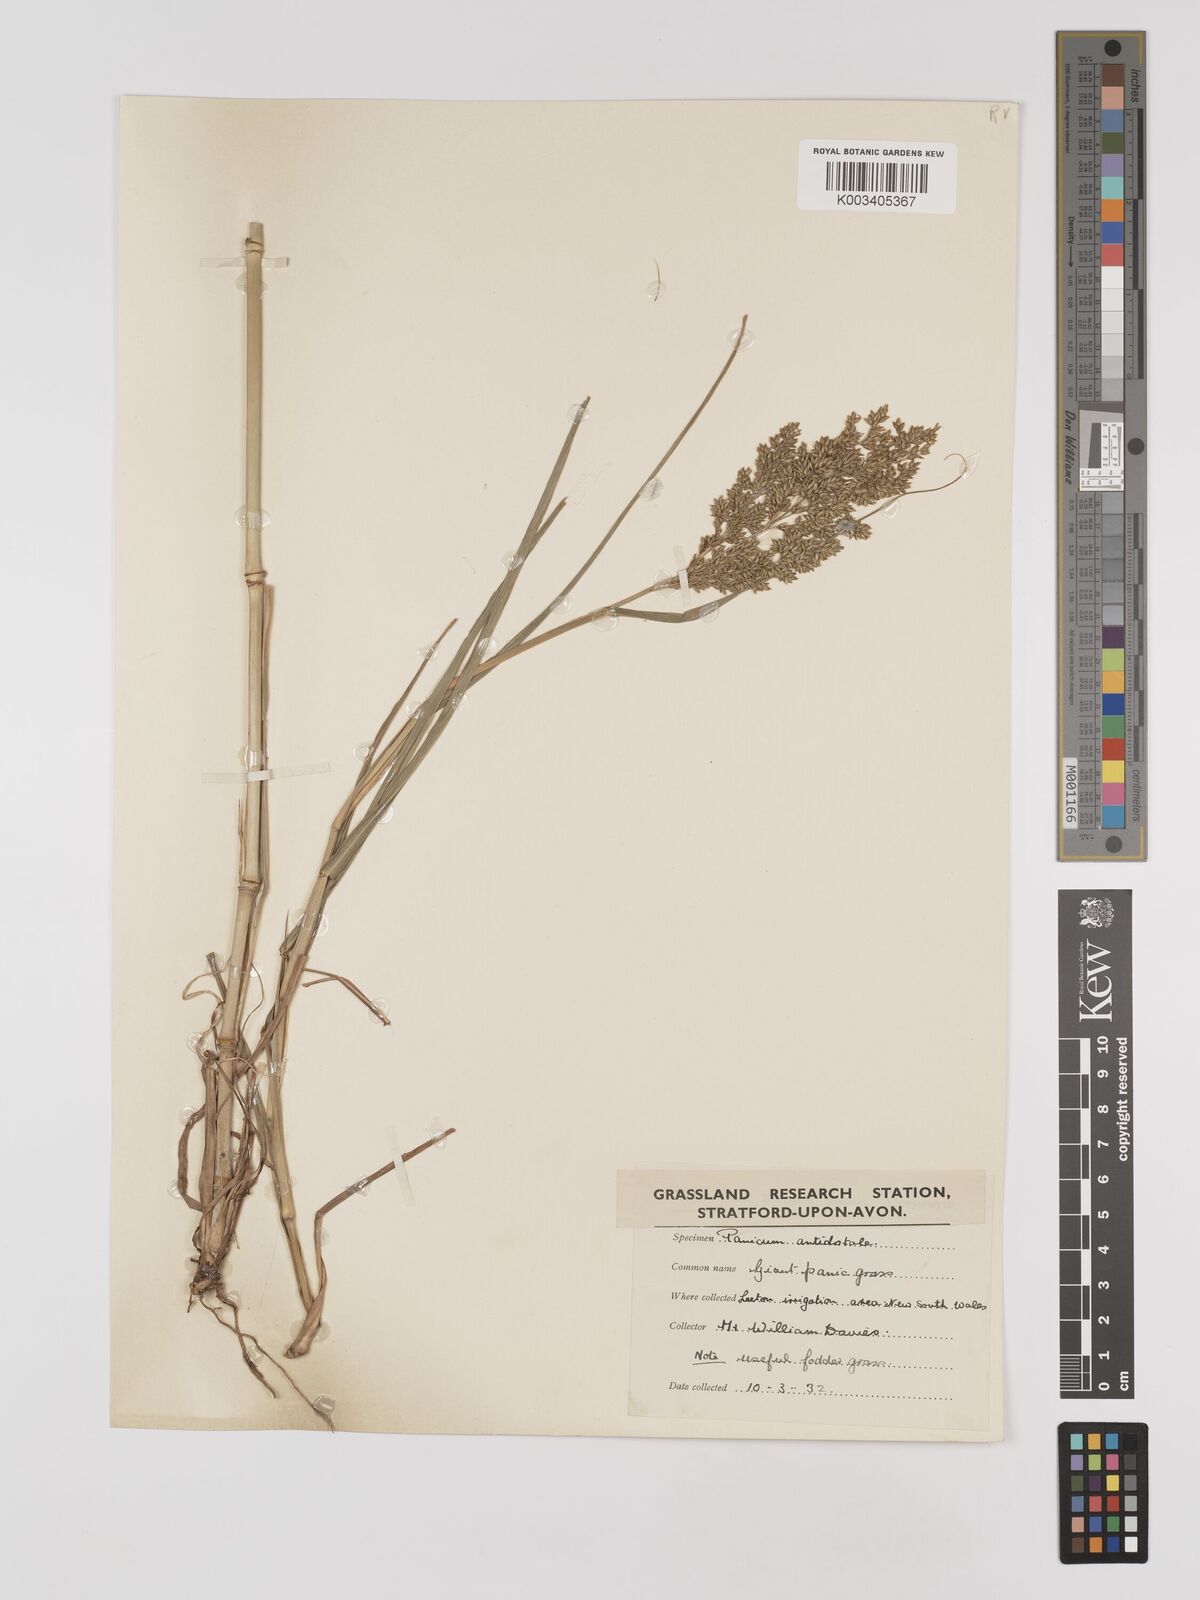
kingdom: Plantae
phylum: Tracheophyta
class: Liliopsida
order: Poales
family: Poaceae
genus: Panicum
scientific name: Panicum antidotale
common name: Blue panicum
